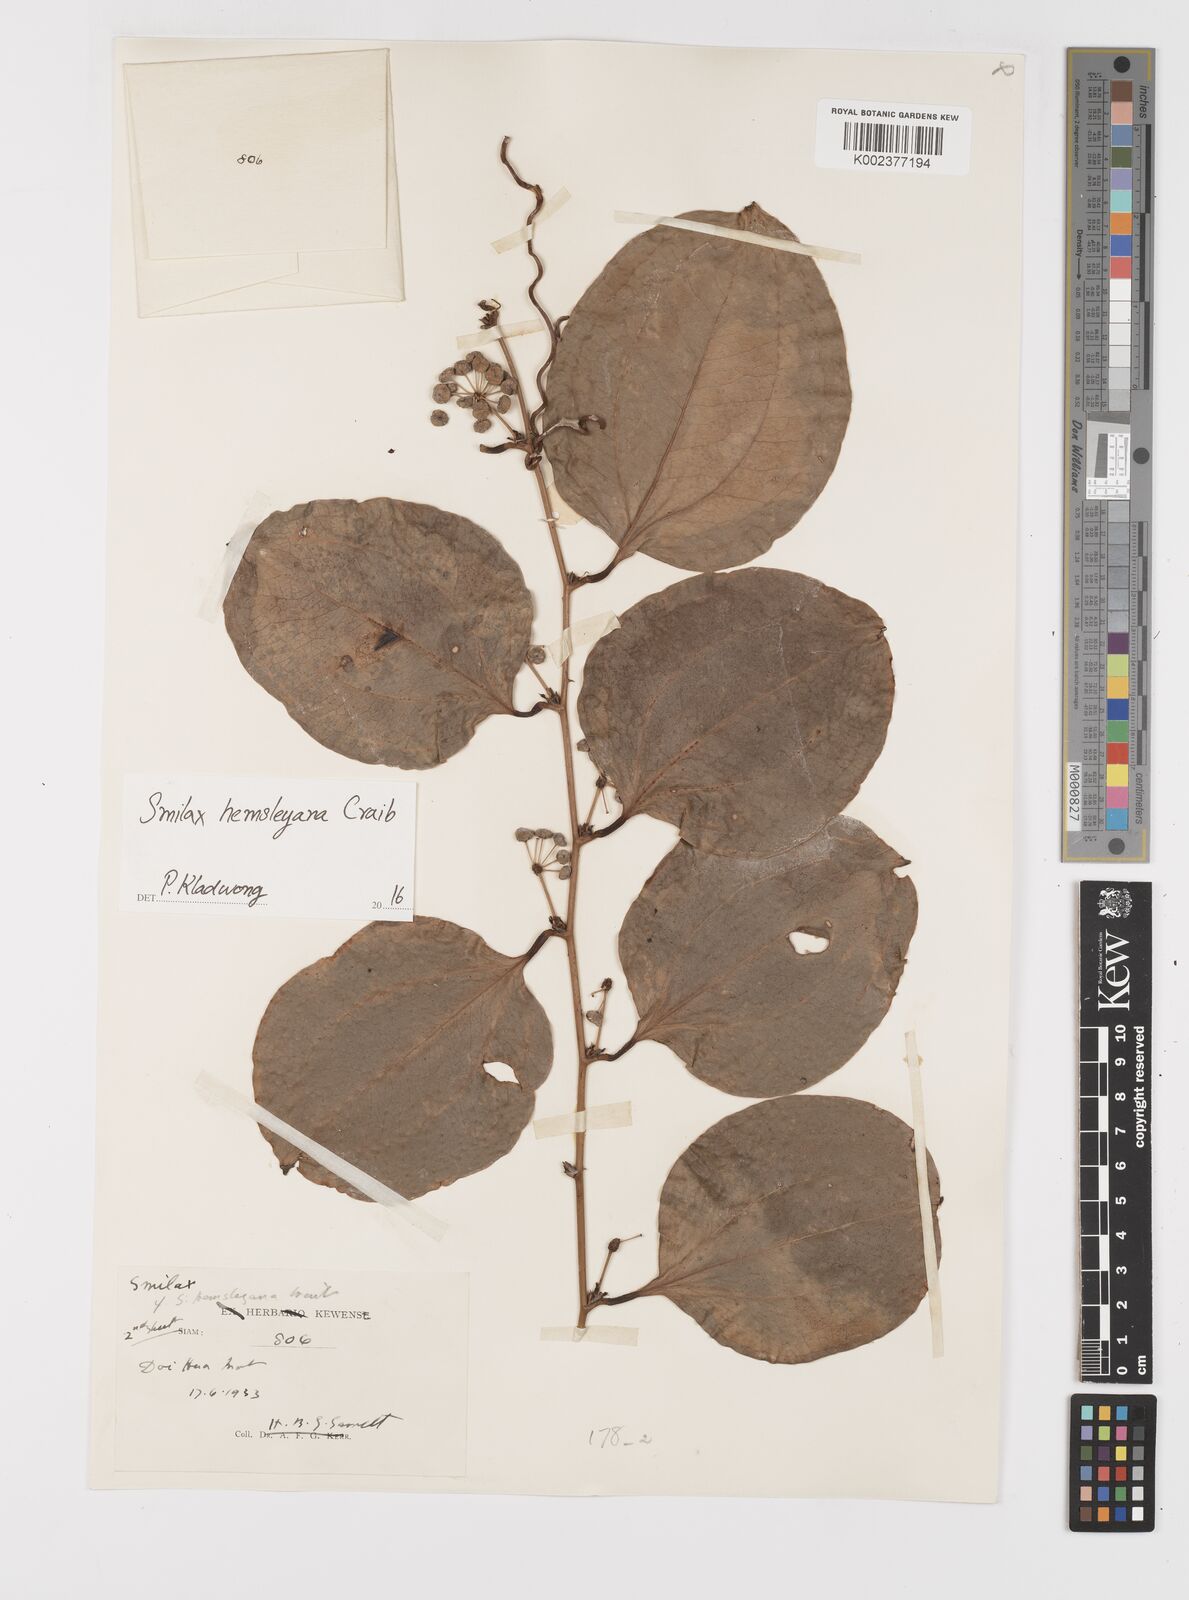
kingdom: Plantae
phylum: Tracheophyta
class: Liliopsida
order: Liliales
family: Smilacaceae
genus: Smilax
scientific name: Smilax hemsleyana
